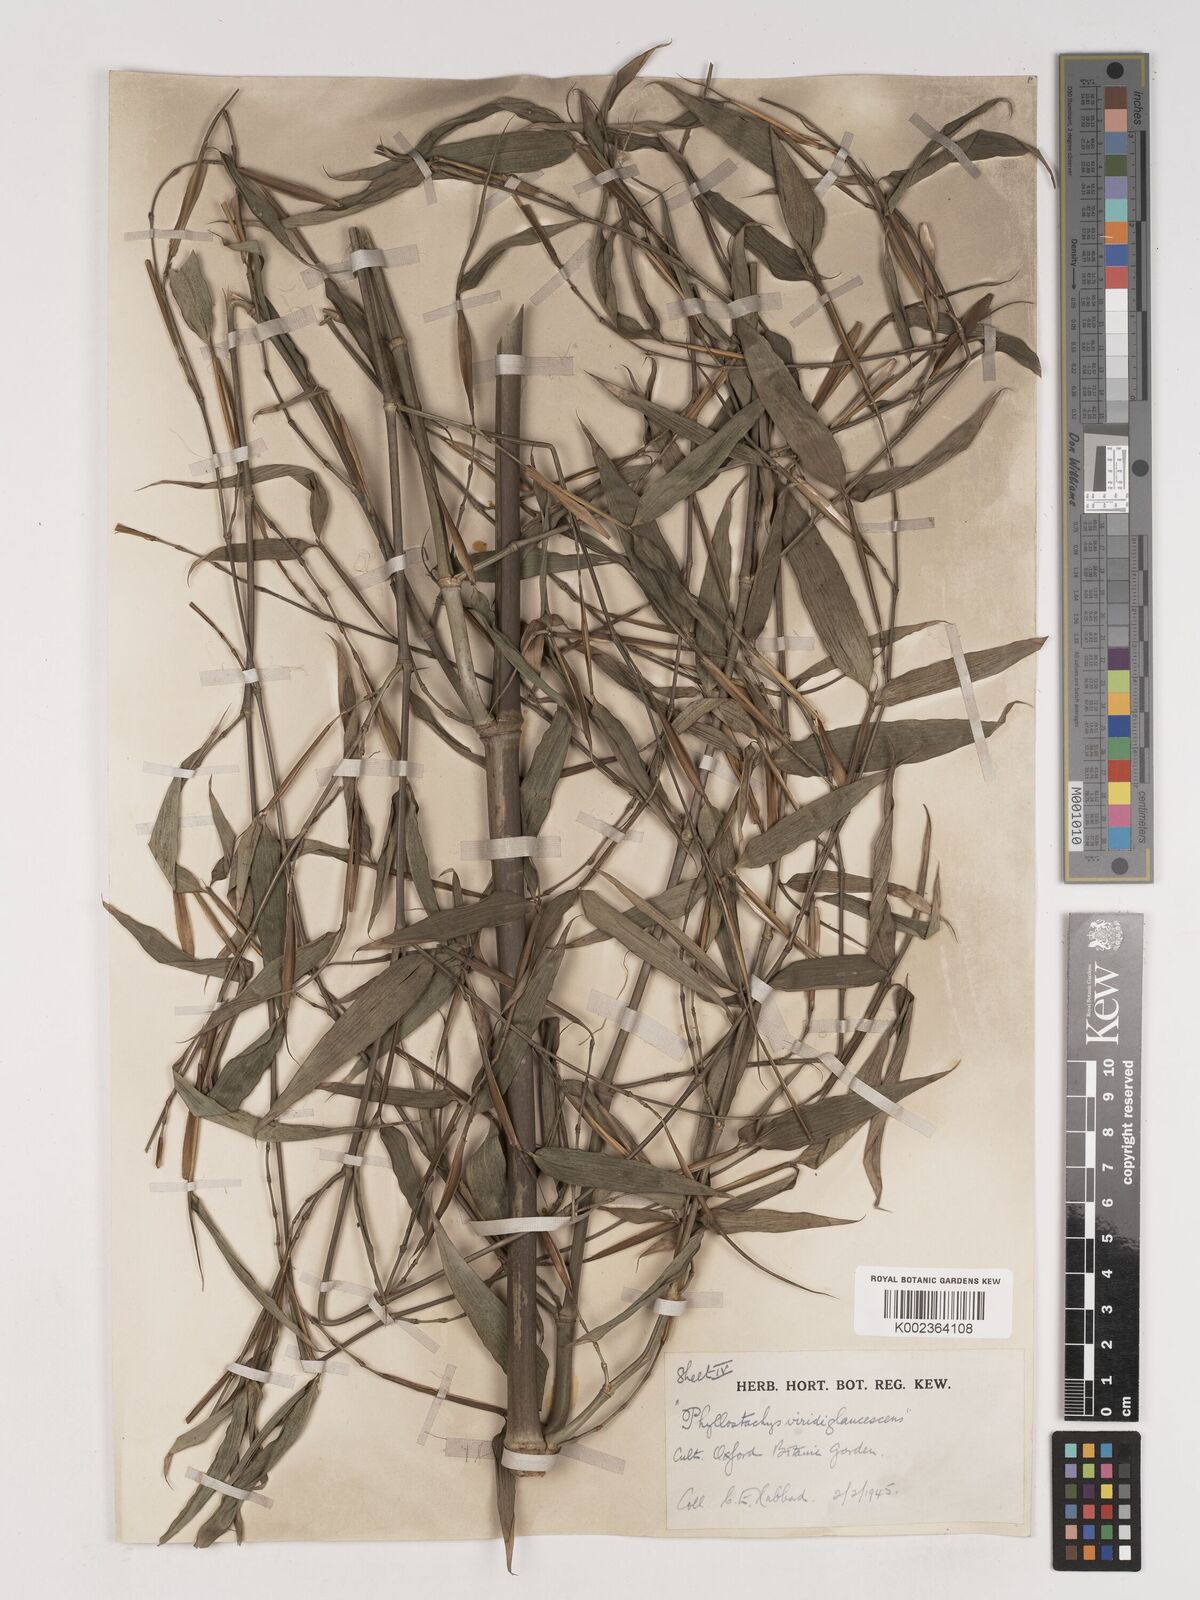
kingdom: Plantae
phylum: Tracheophyta
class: Liliopsida
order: Poales
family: Poaceae
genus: Phyllostachys
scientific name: Phyllostachys viridiglaucescens
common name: Greenwax golden bamboo
